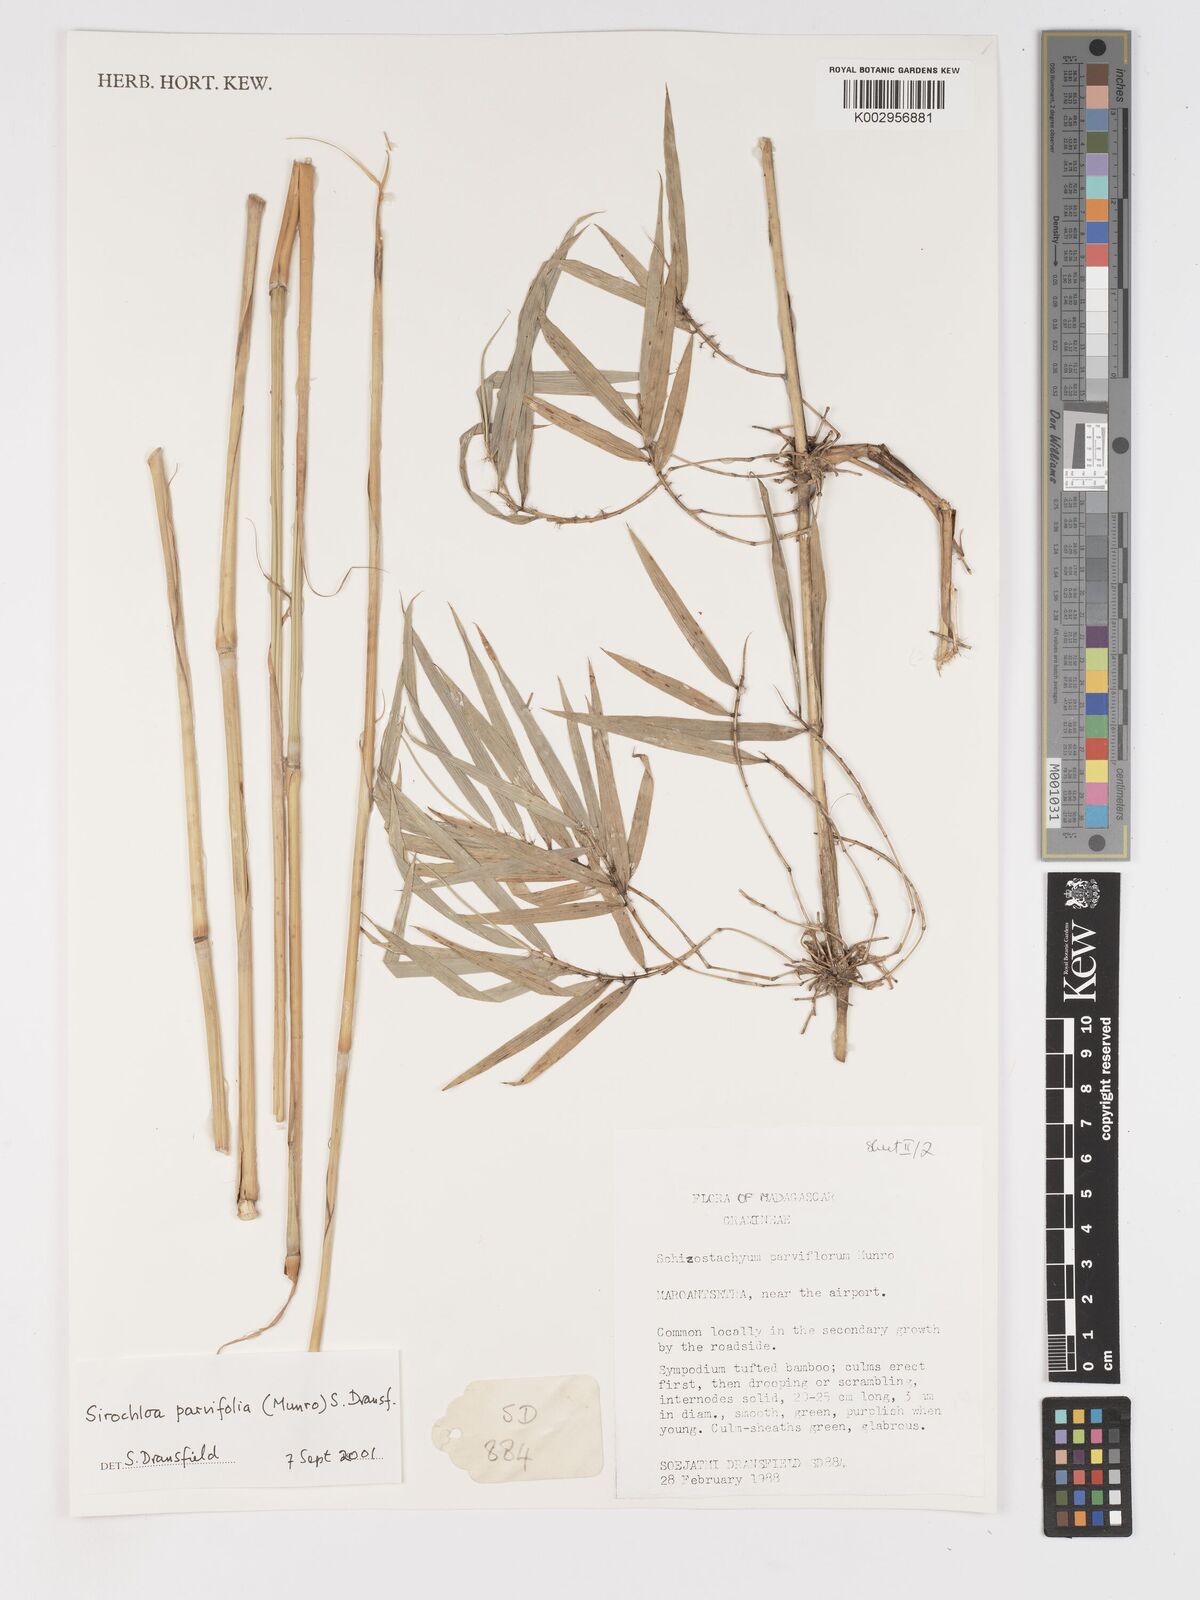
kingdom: Plantae
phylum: Tracheophyta
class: Liliopsida
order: Poales
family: Poaceae
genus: Sirochloa
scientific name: Sirochloa parvifolia
